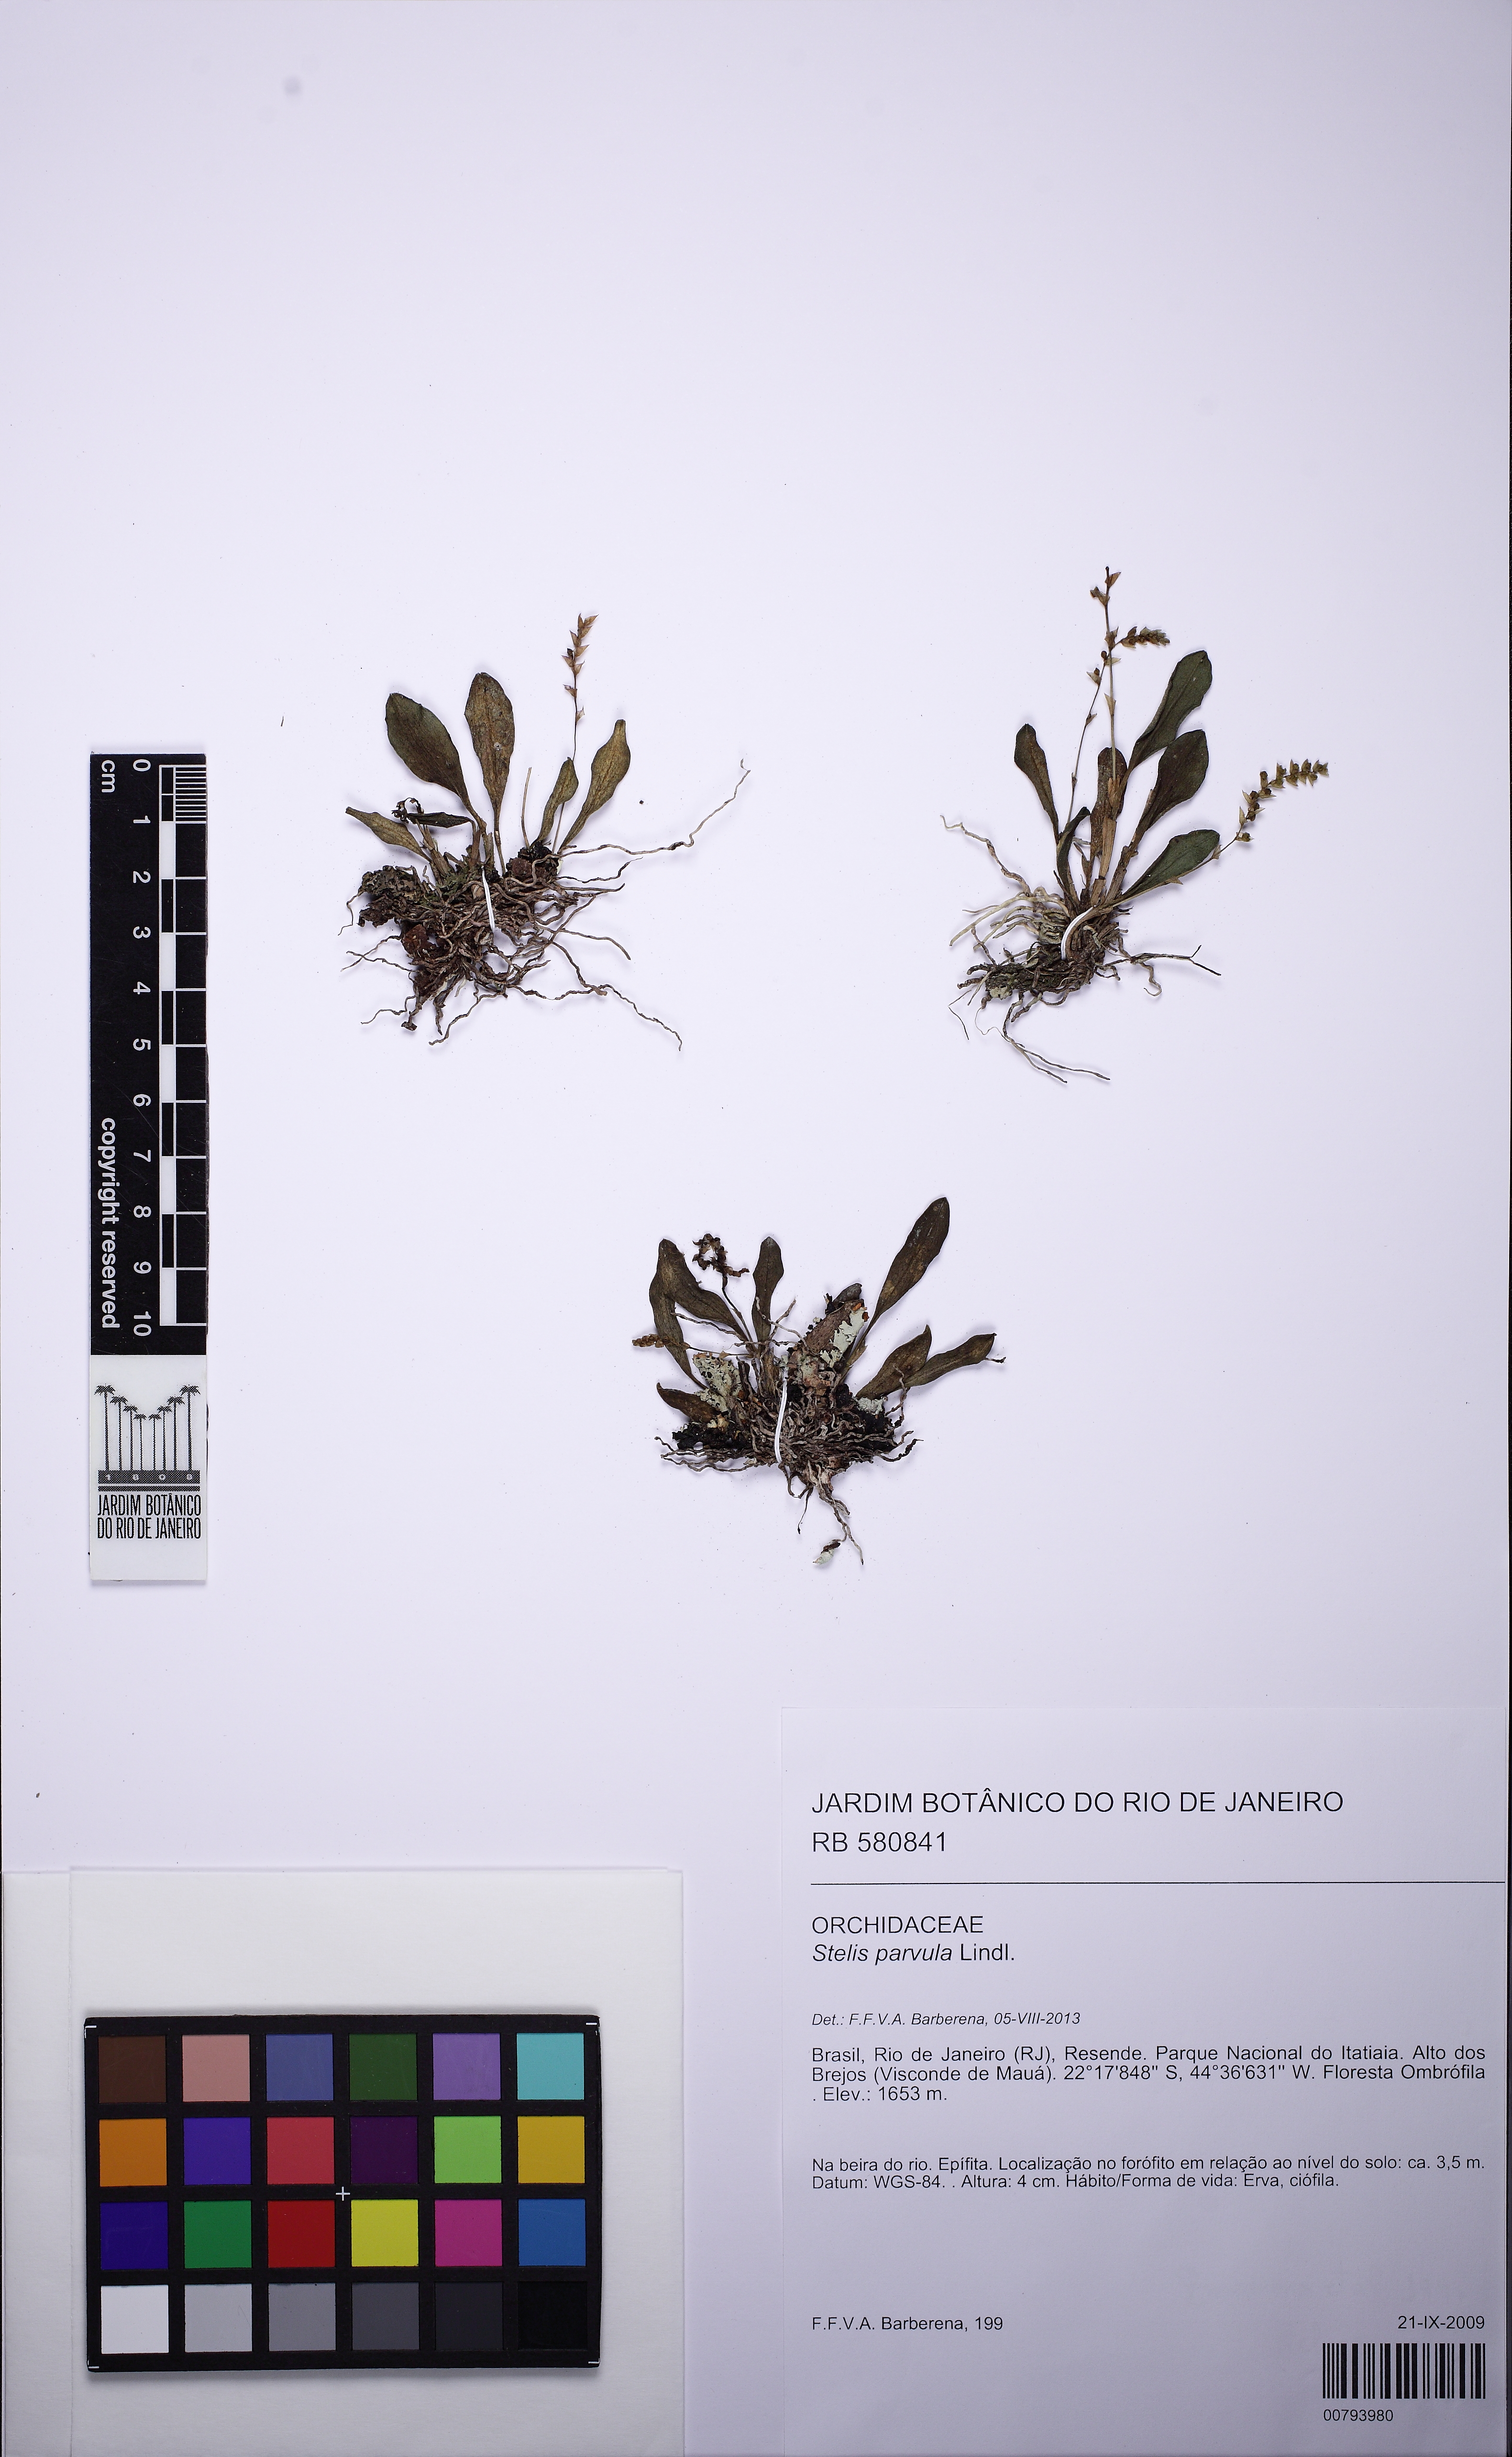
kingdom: Plantae
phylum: Tracheophyta
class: Liliopsida
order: Asparagales
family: Orchidaceae
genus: Stelis
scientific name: Stelis
